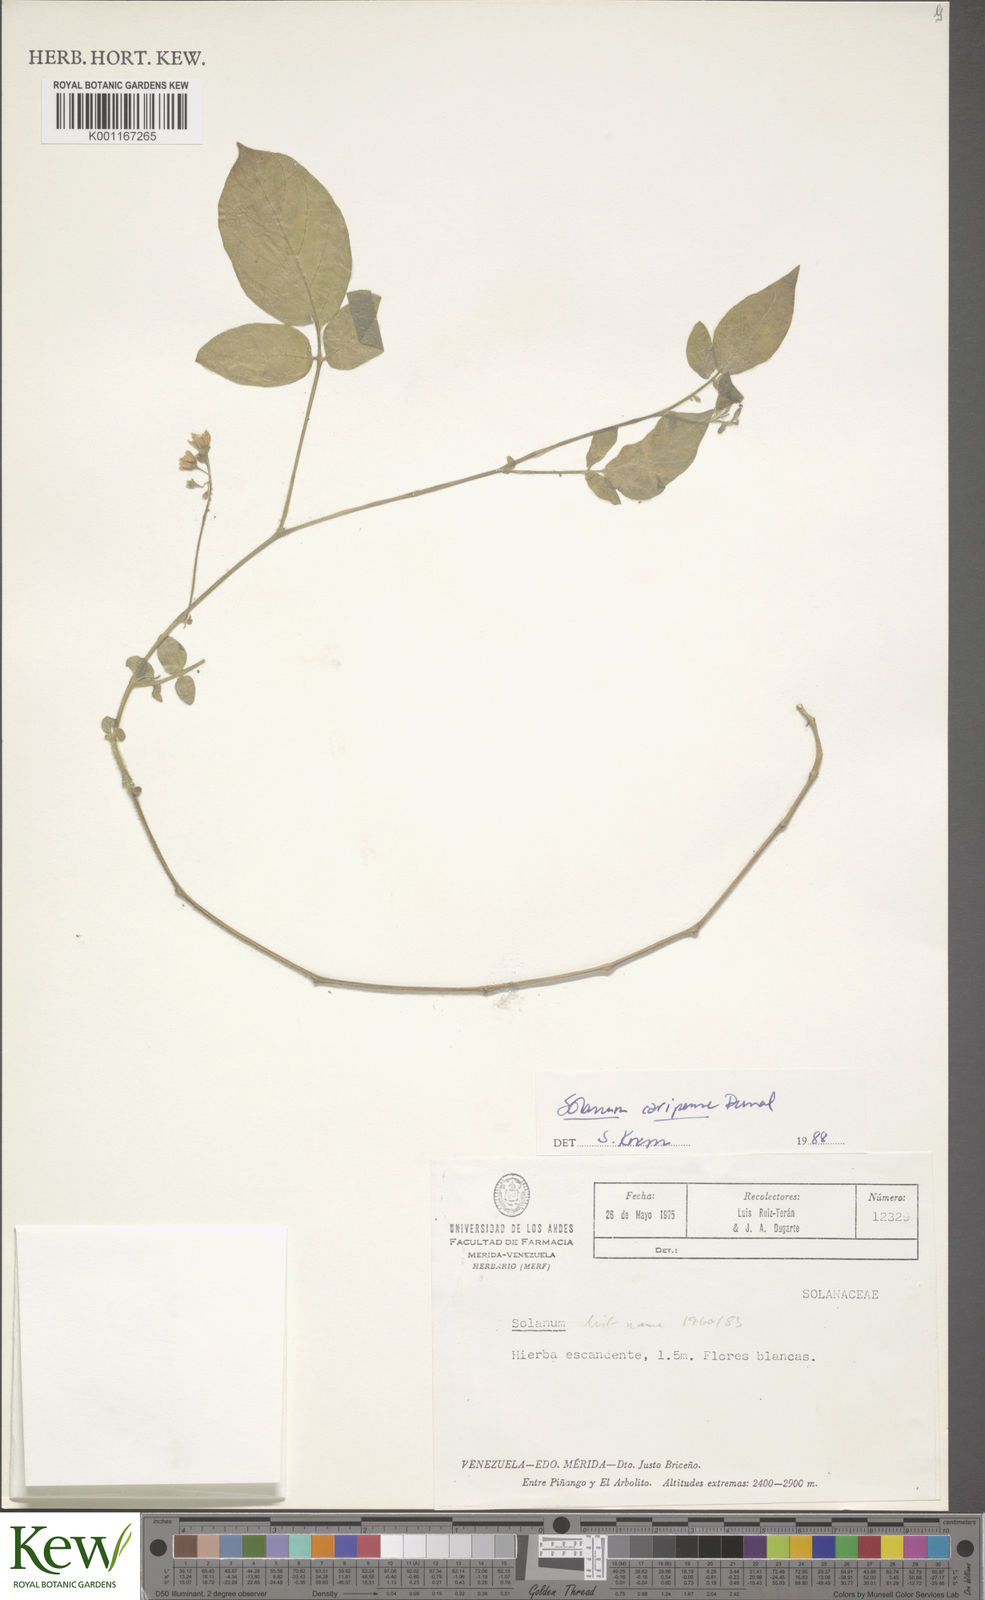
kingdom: Plantae
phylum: Tracheophyta
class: Magnoliopsida
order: Solanales
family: Solanaceae
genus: Solanum
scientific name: Solanum caripense
